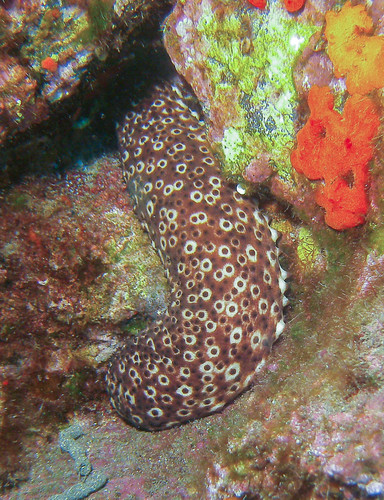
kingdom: Animalia
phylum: Echinodermata
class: Holothuroidea
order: Holothuriida
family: Holothuriidae
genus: Holothuria
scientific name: Holothuria sanctori
